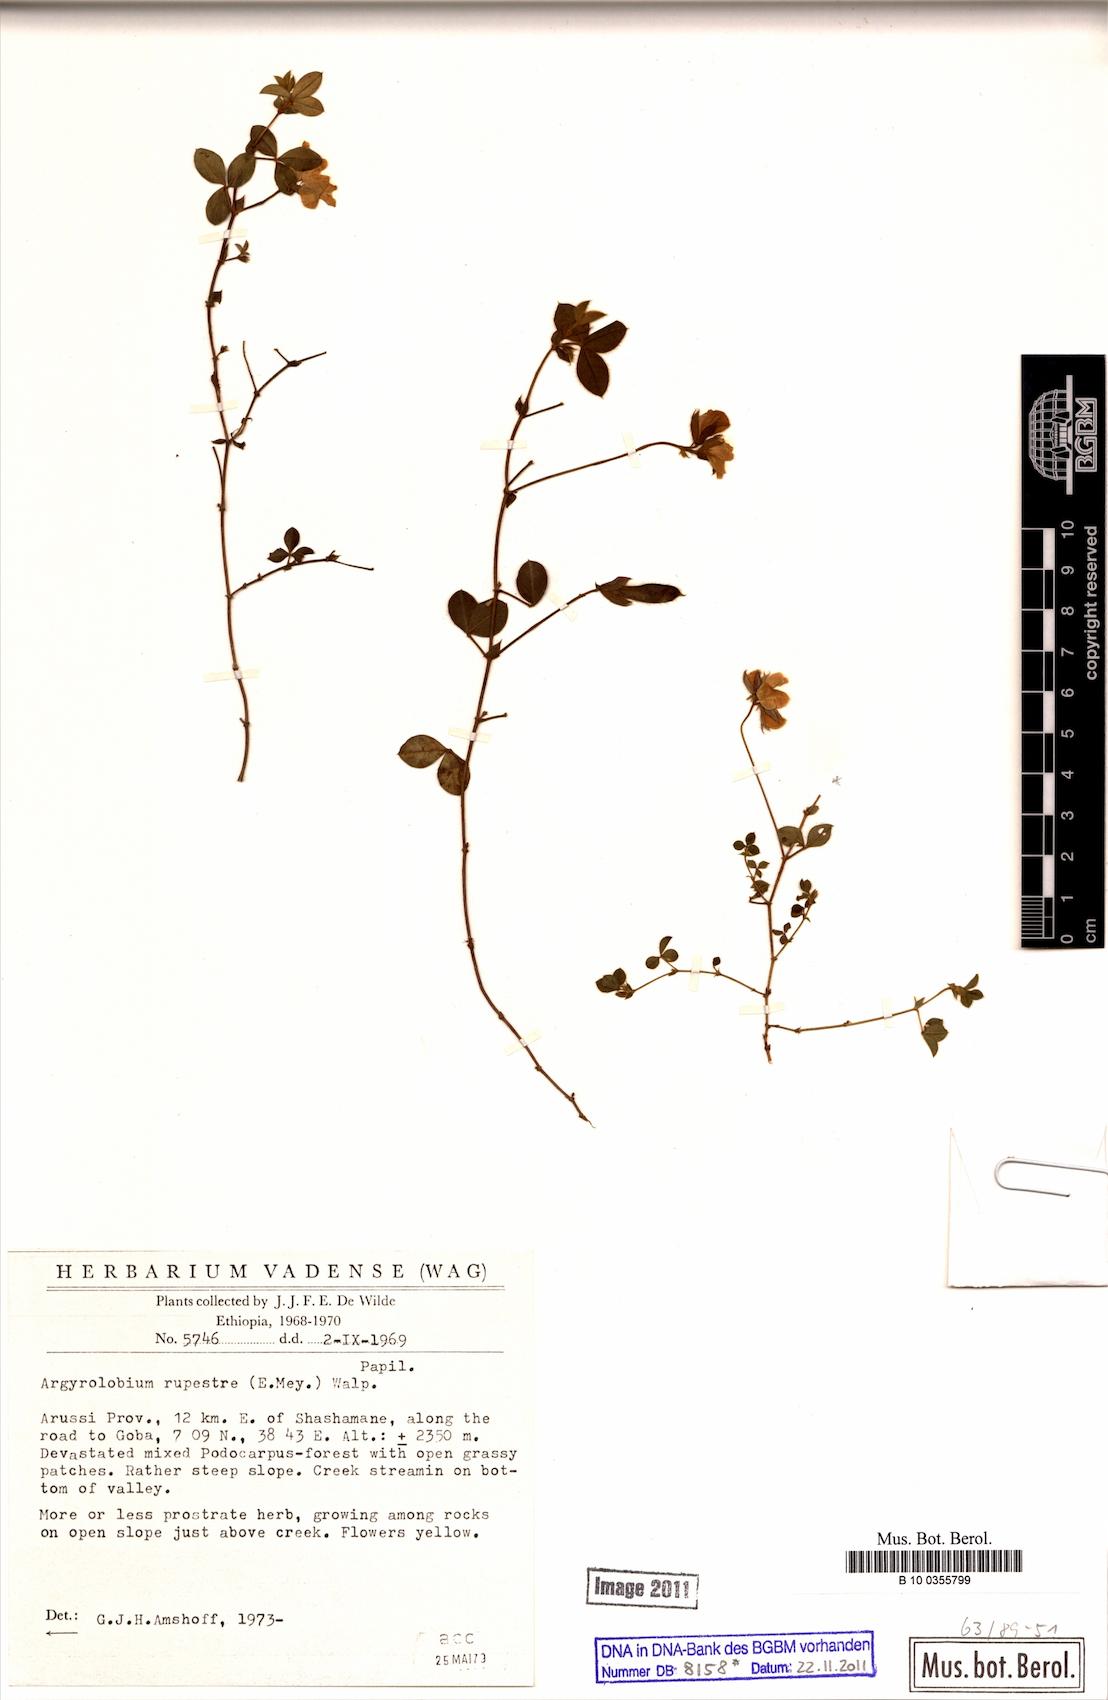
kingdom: Plantae
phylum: Tracheophyta
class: Magnoliopsida
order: Fabales
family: Fabaceae
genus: Argyrolobium
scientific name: Argyrolobium rupestre
